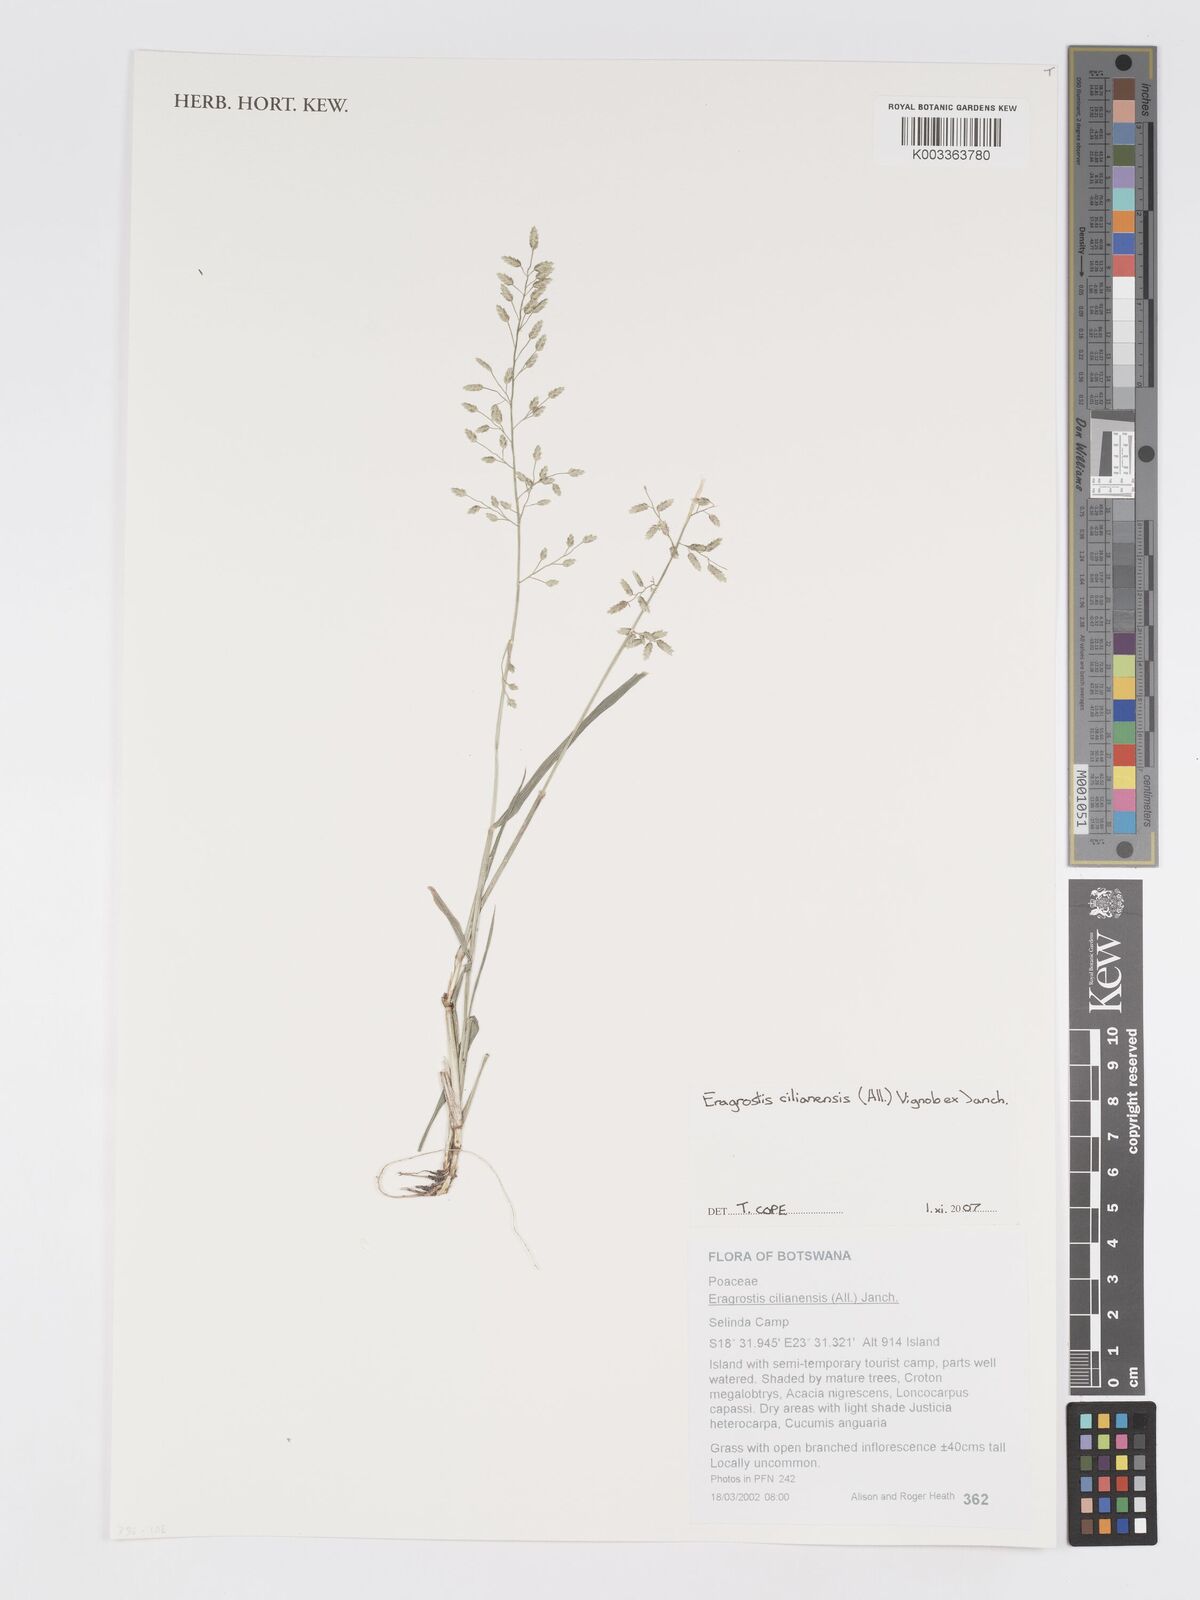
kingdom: Plantae
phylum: Tracheophyta
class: Liliopsida
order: Poales
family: Poaceae
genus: Eragrostis
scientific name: Eragrostis cilianensis
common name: Stinkgrass
